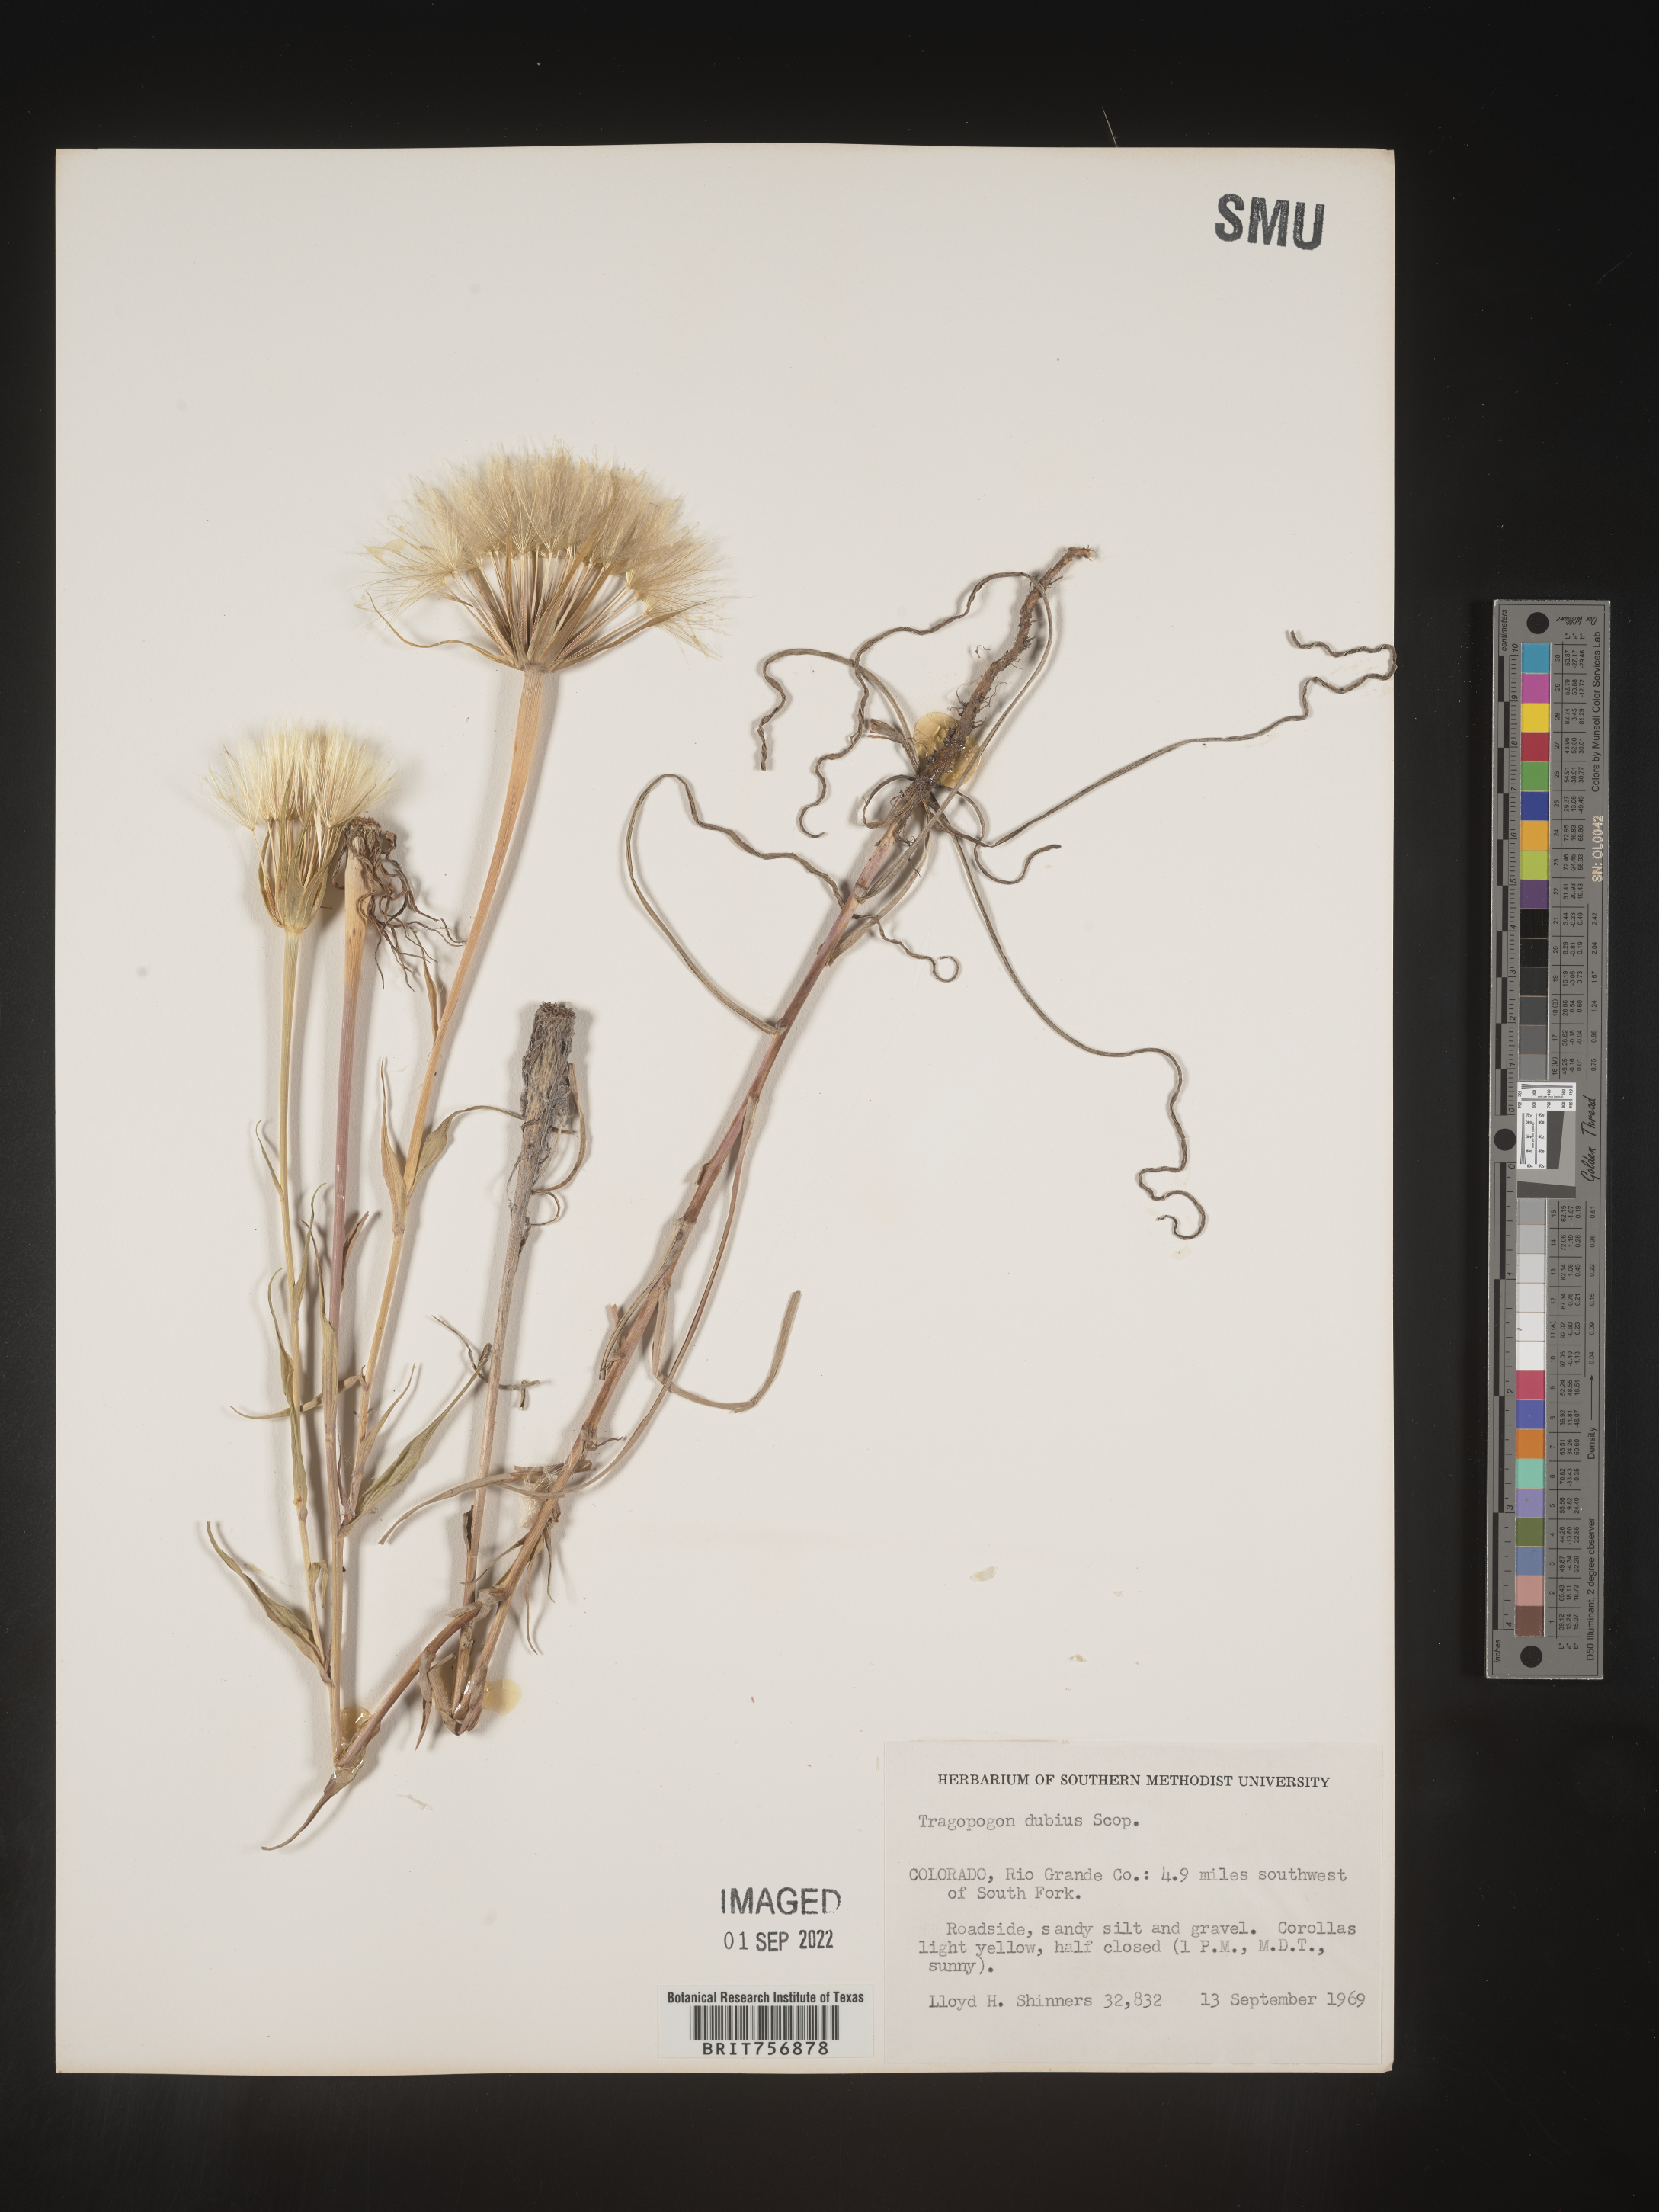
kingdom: Plantae
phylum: Tracheophyta
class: Magnoliopsida
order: Asterales
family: Asteraceae
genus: Tragopogon
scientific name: Tragopogon dubius
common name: Yellow salsify
